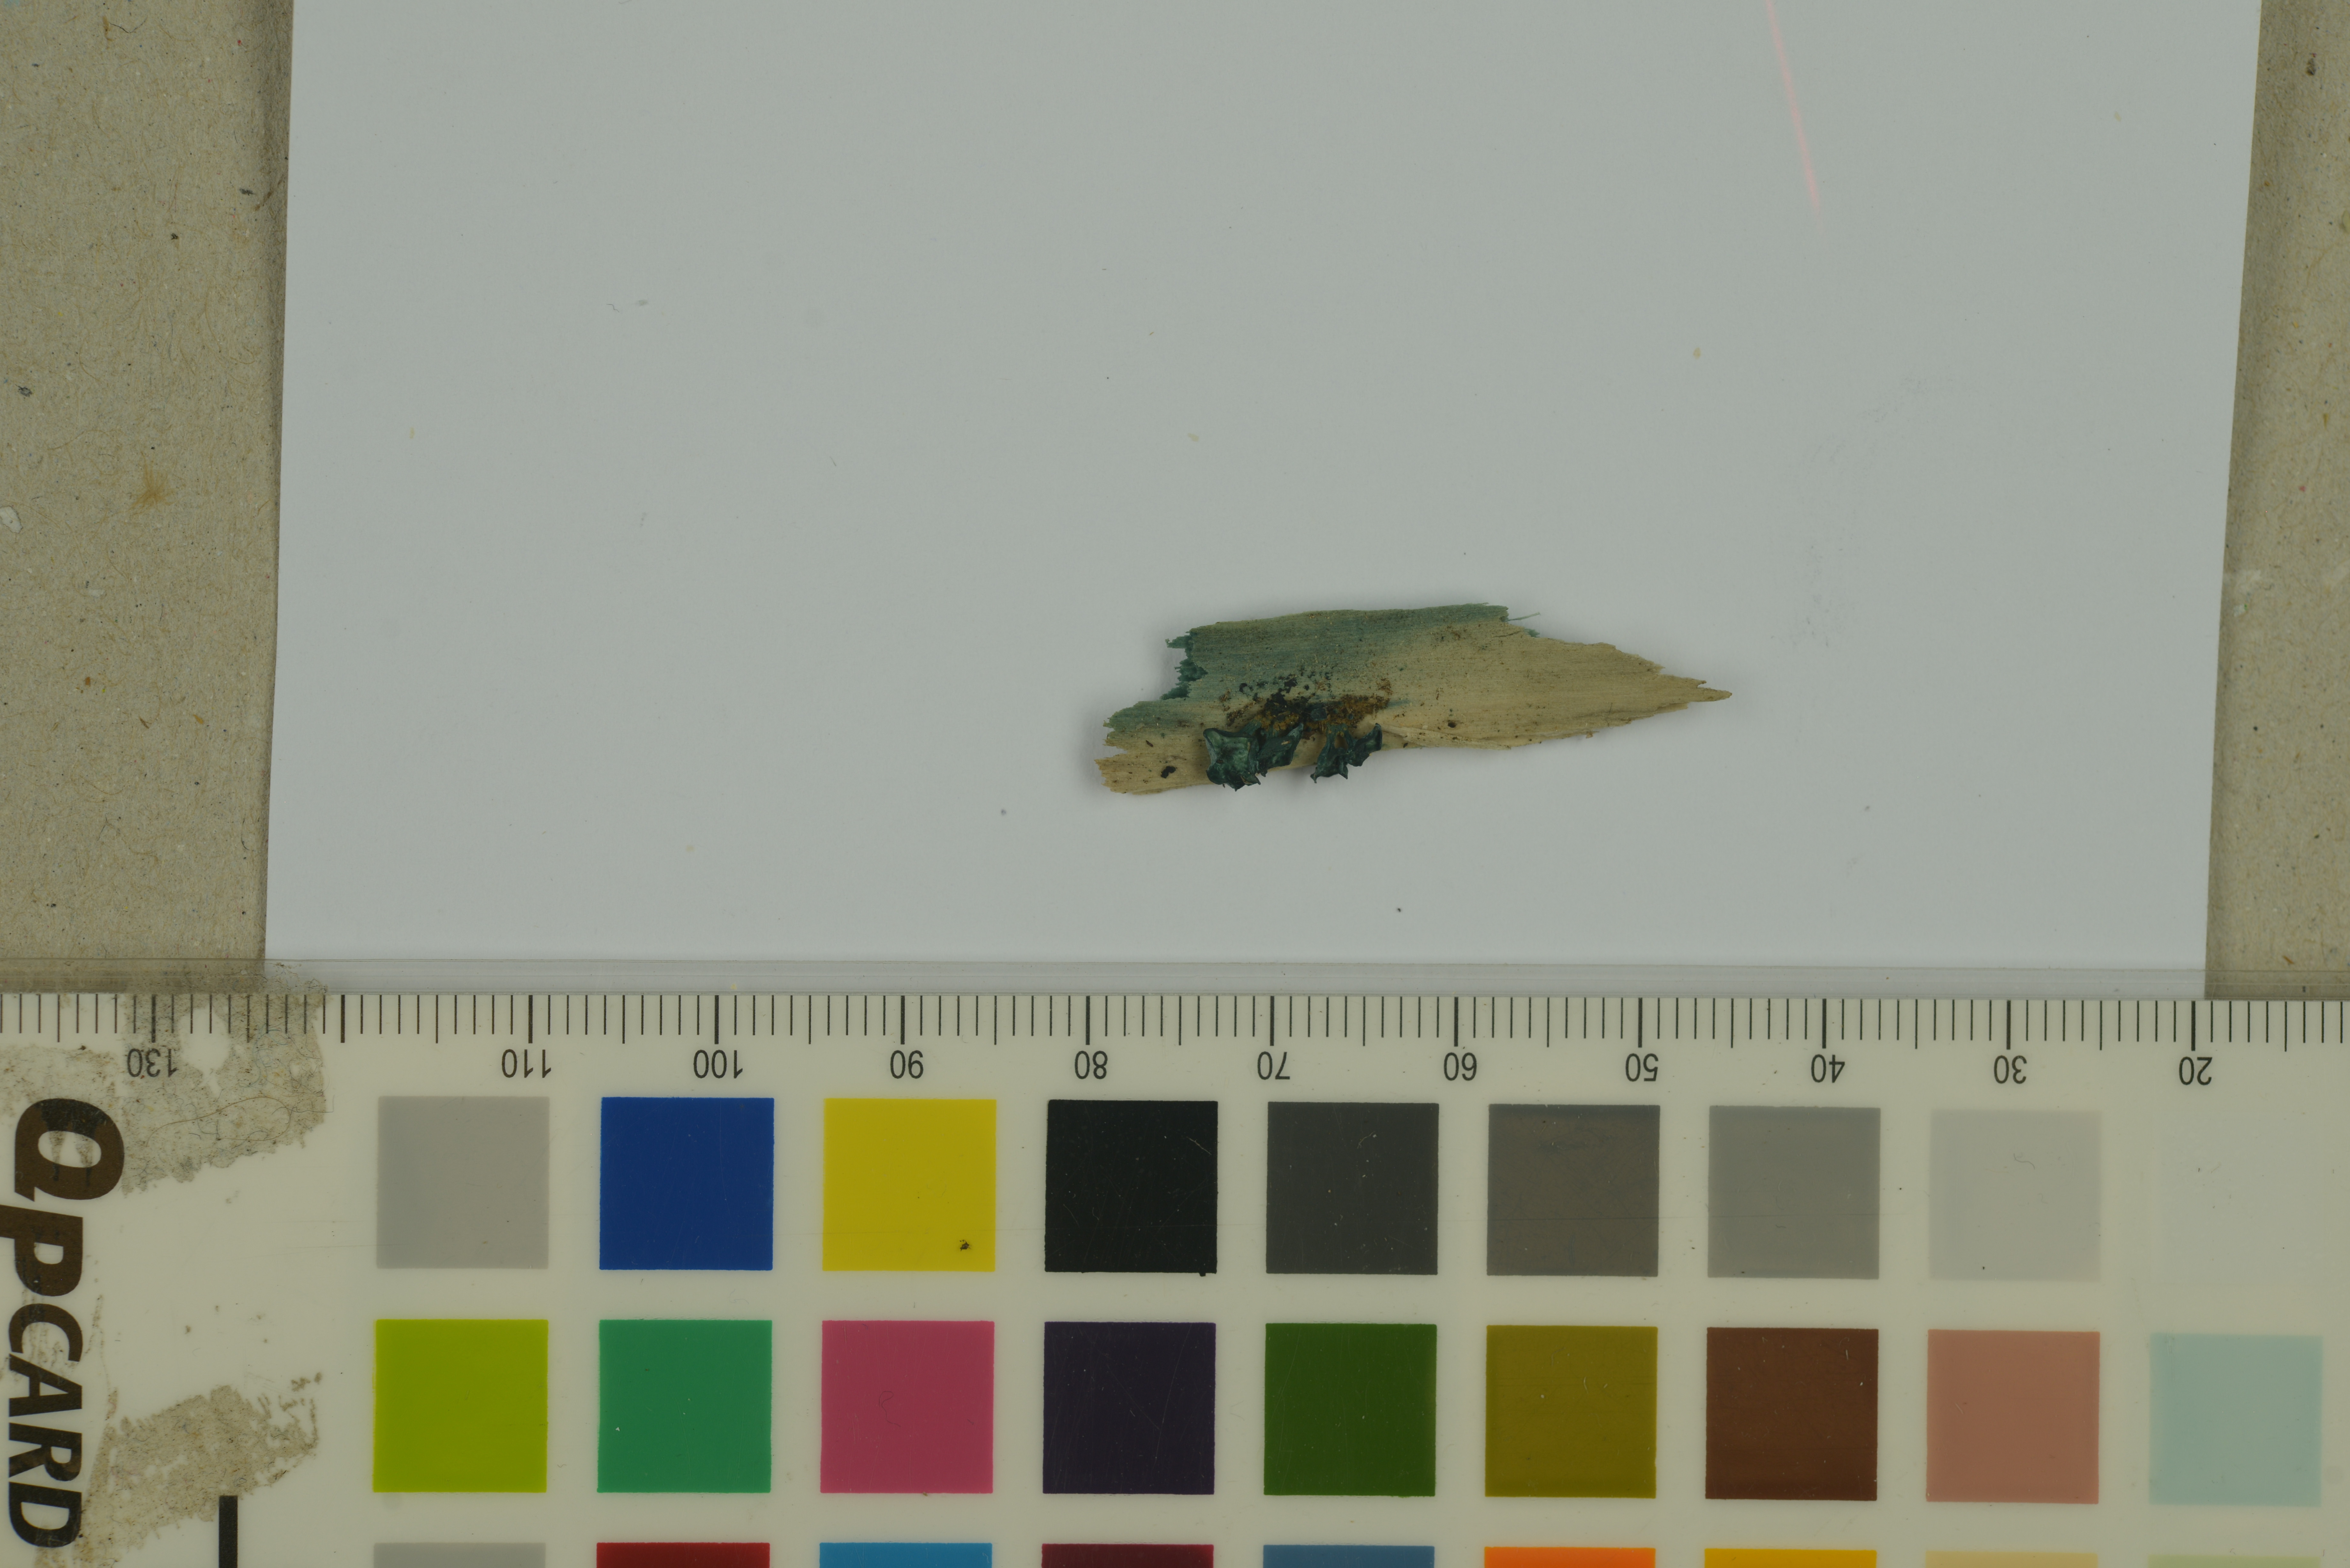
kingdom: Fungi
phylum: Ascomycota
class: Leotiomycetes
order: Helotiales
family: Chlorociboriaceae
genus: Chlorociboria
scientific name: Chlorociboria aeruginascens
